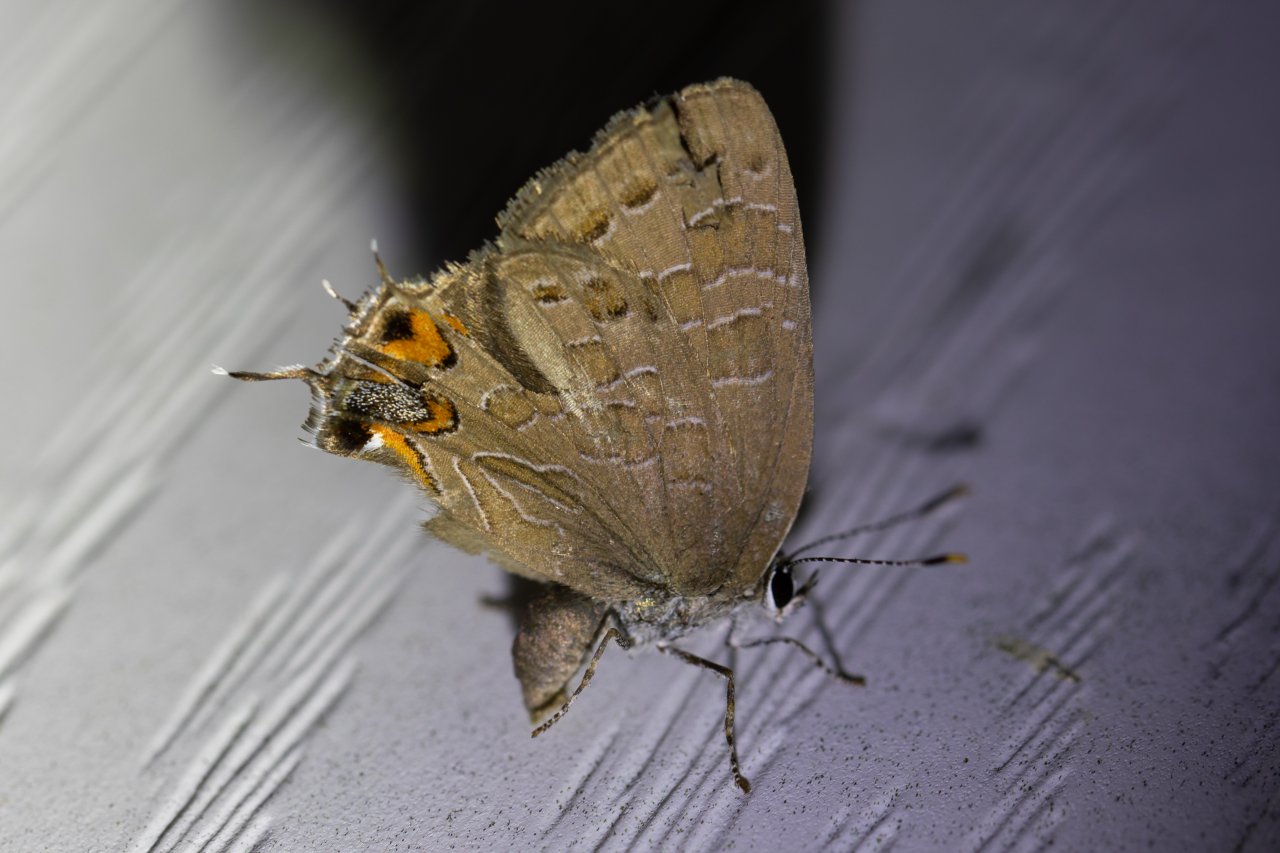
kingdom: Animalia
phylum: Arthropoda
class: Insecta
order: Lepidoptera
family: Lycaenidae
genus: Satyrium
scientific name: Satyrium liparops
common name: Striped Hairstreak
